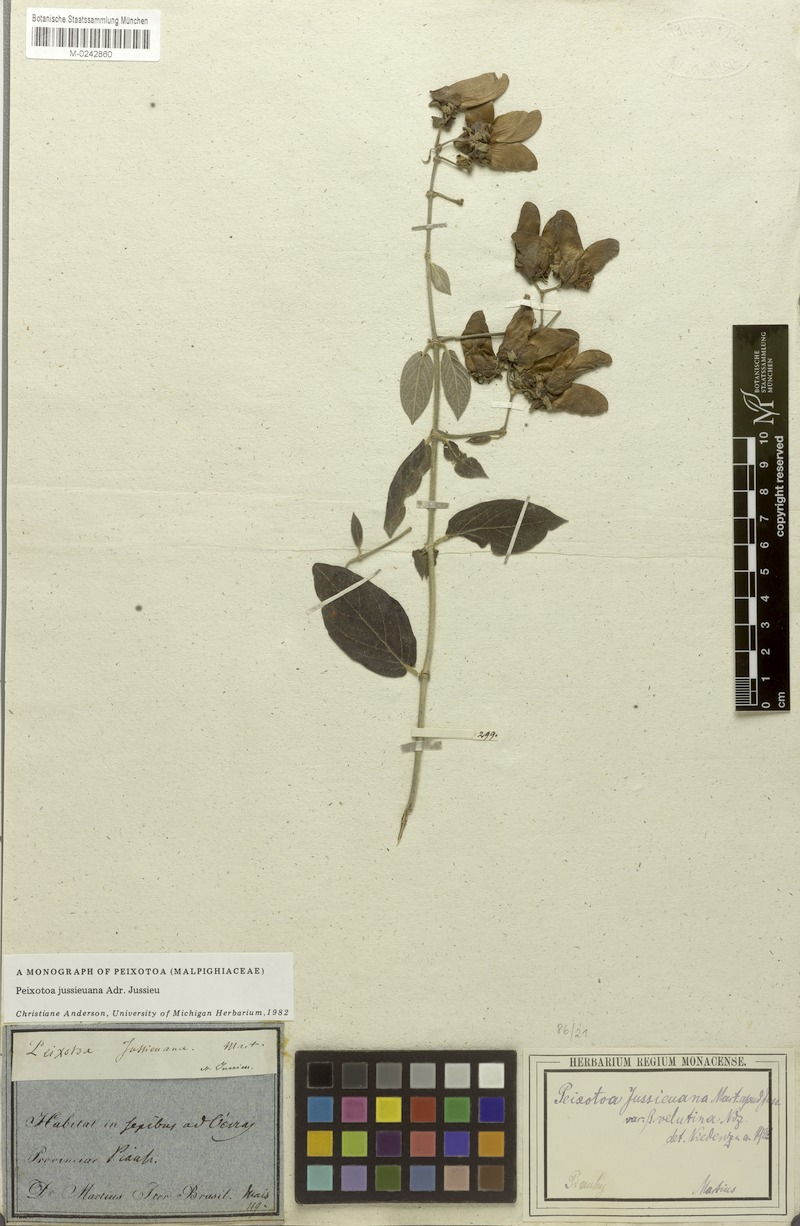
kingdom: Plantae
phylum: Tracheophyta
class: Magnoliopsida
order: Malpighiales
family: Malpighiaceae
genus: Peixotoa
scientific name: Peixotoa jussieuana
